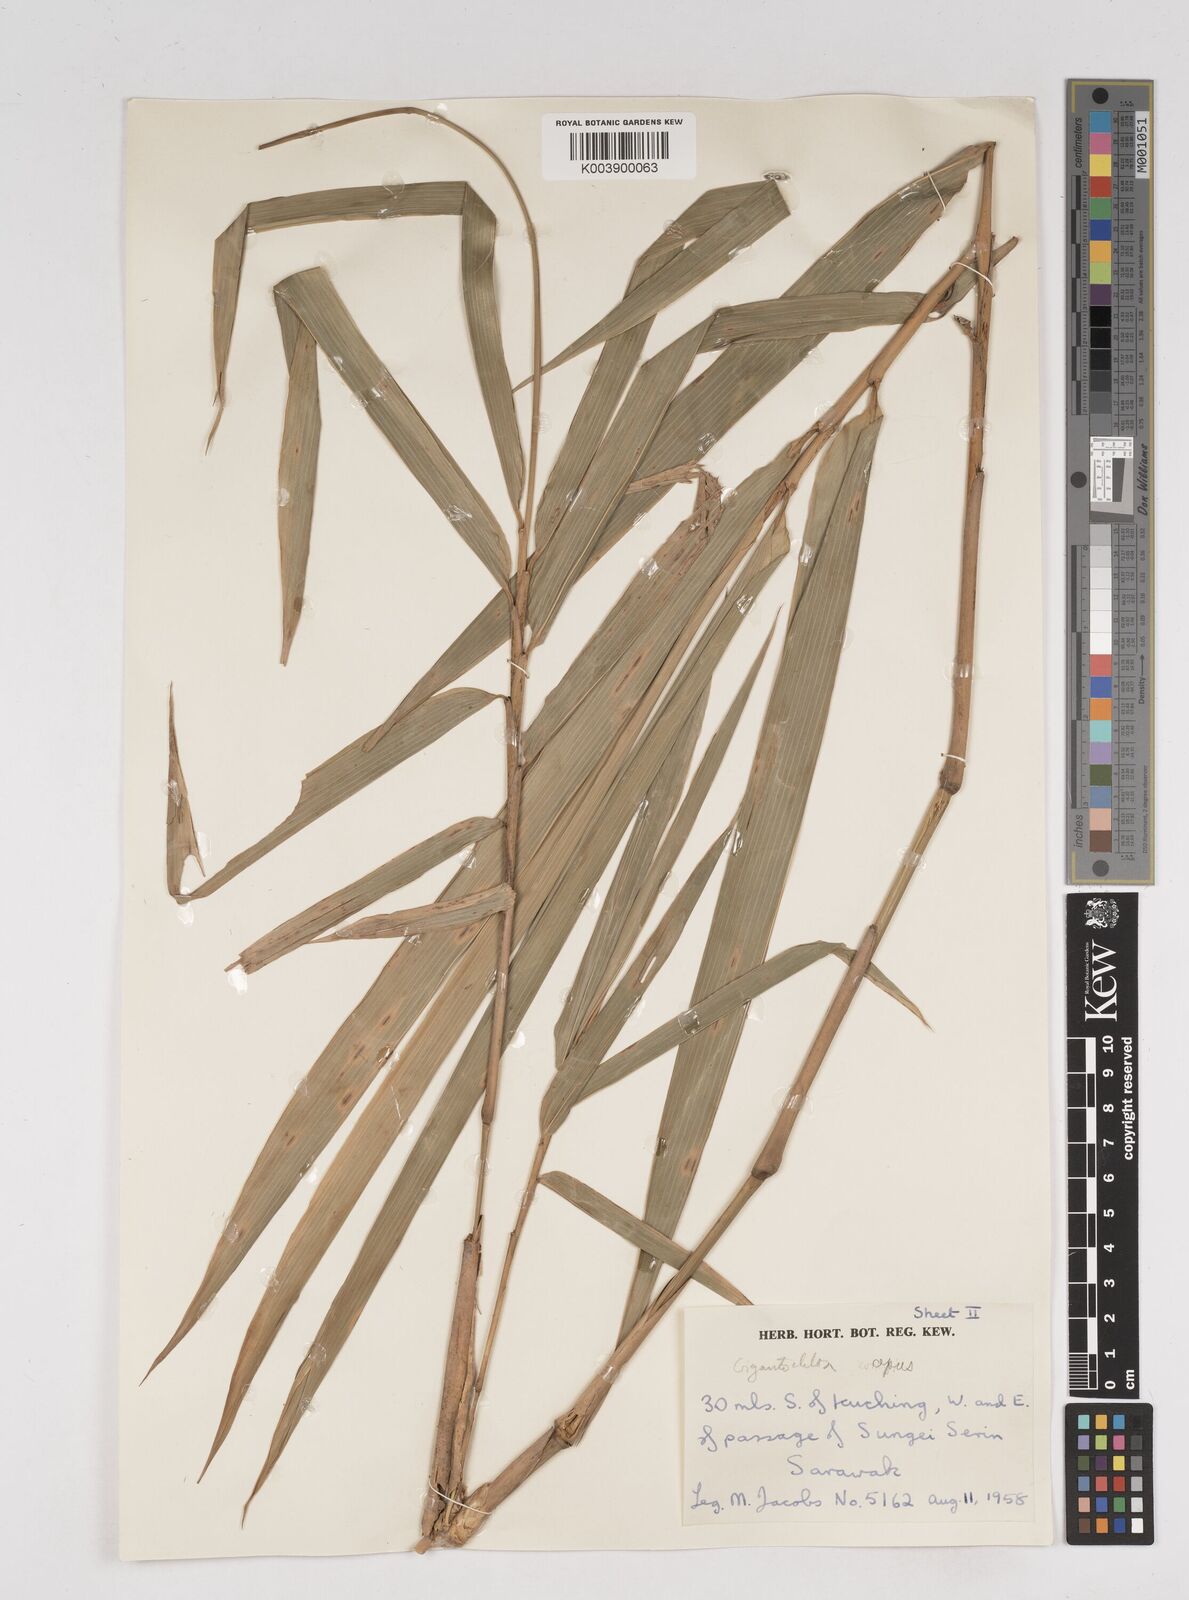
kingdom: Plantae
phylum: Tracheophyta
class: Liliopsida
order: Poales
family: Poaceae
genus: Gigantochloa
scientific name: Gigantochloa apus
